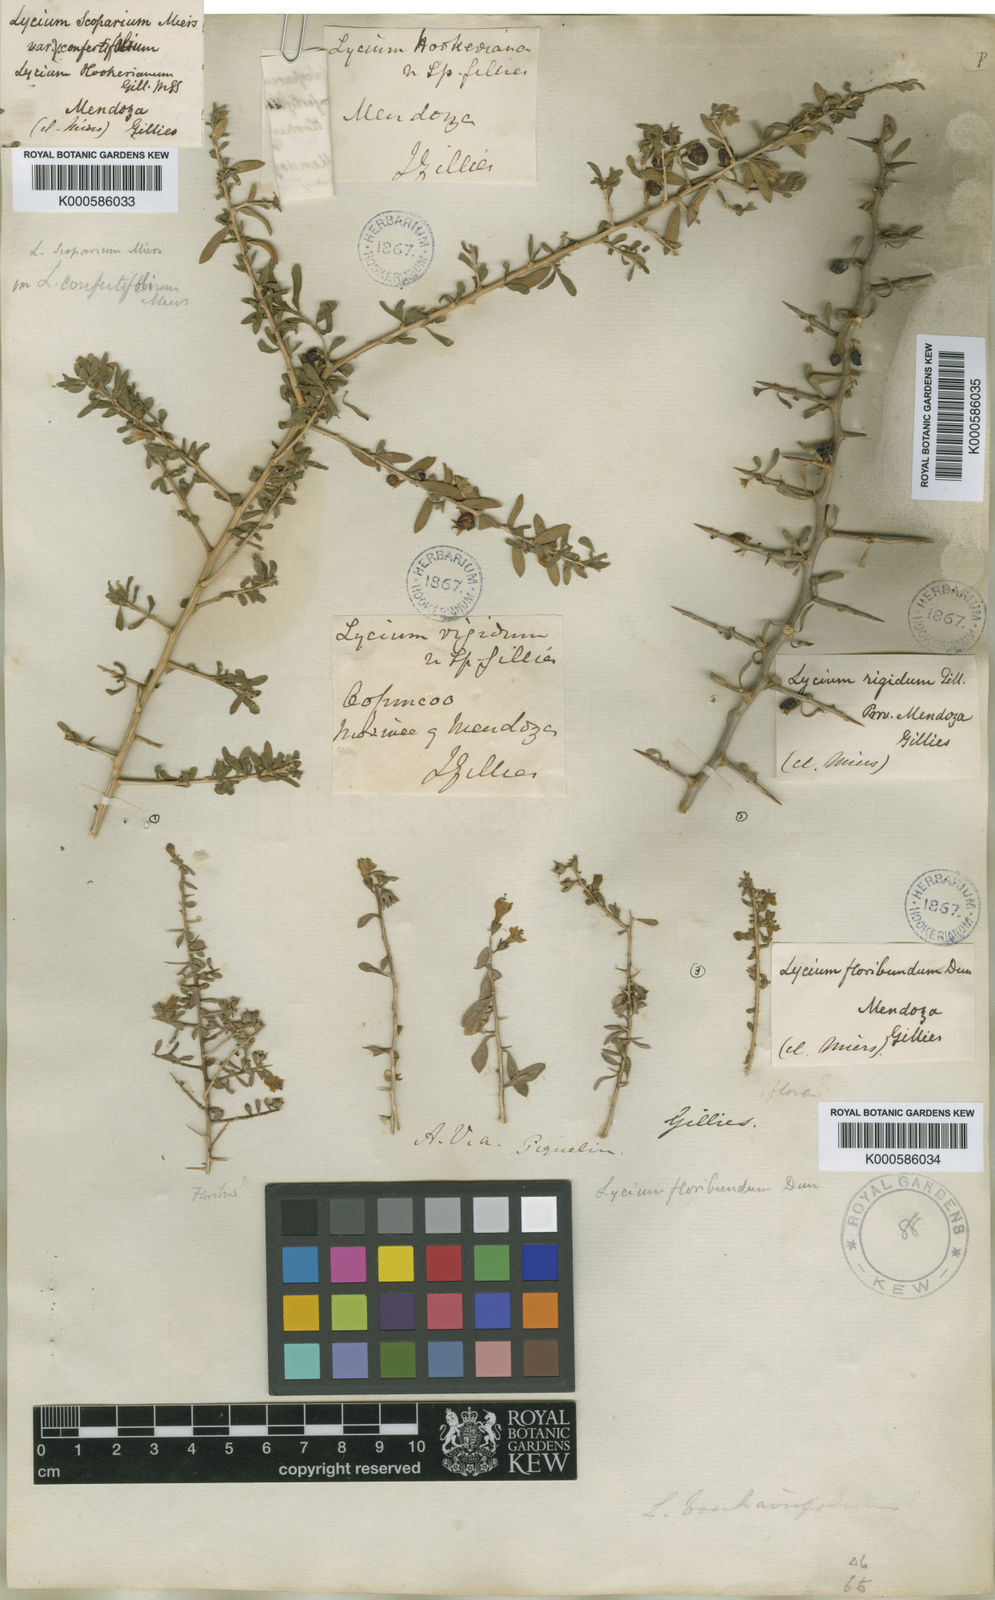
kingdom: Plantae
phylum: Tracheophyta
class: Magnoliopsida
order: Solanales
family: Solanaceae
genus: Lycium
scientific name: Lycium gilliesianum
